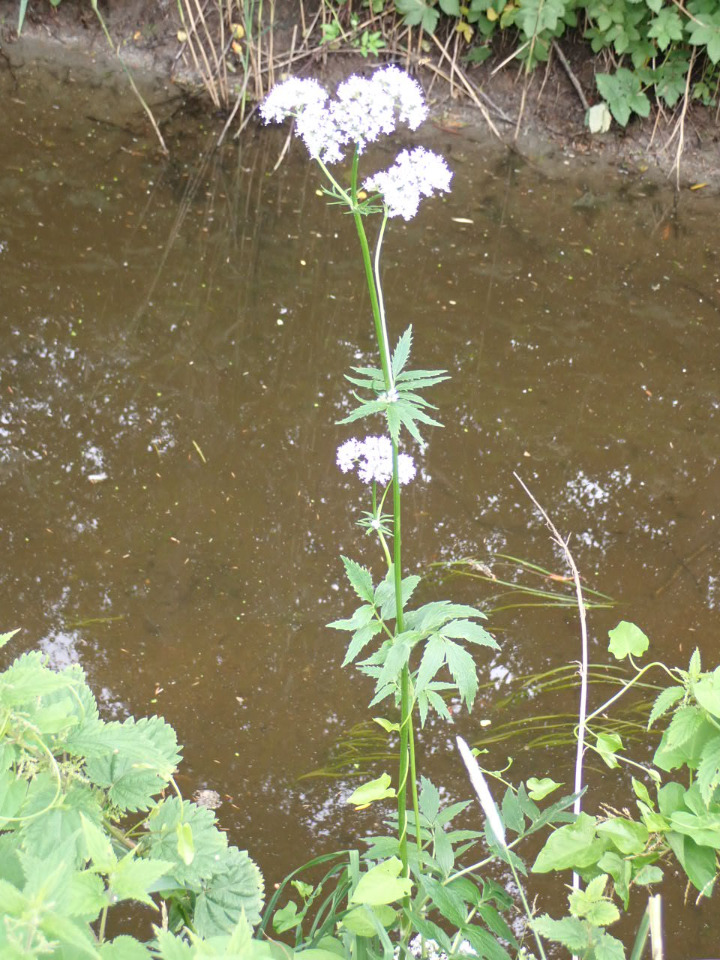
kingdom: Plantae
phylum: Tracheophyta
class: Magnoliopsida
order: Dipsacales
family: Caprifoliaceae
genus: Valeriana
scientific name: Valeriana sambucifolia
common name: Hyldebladet baldrian
